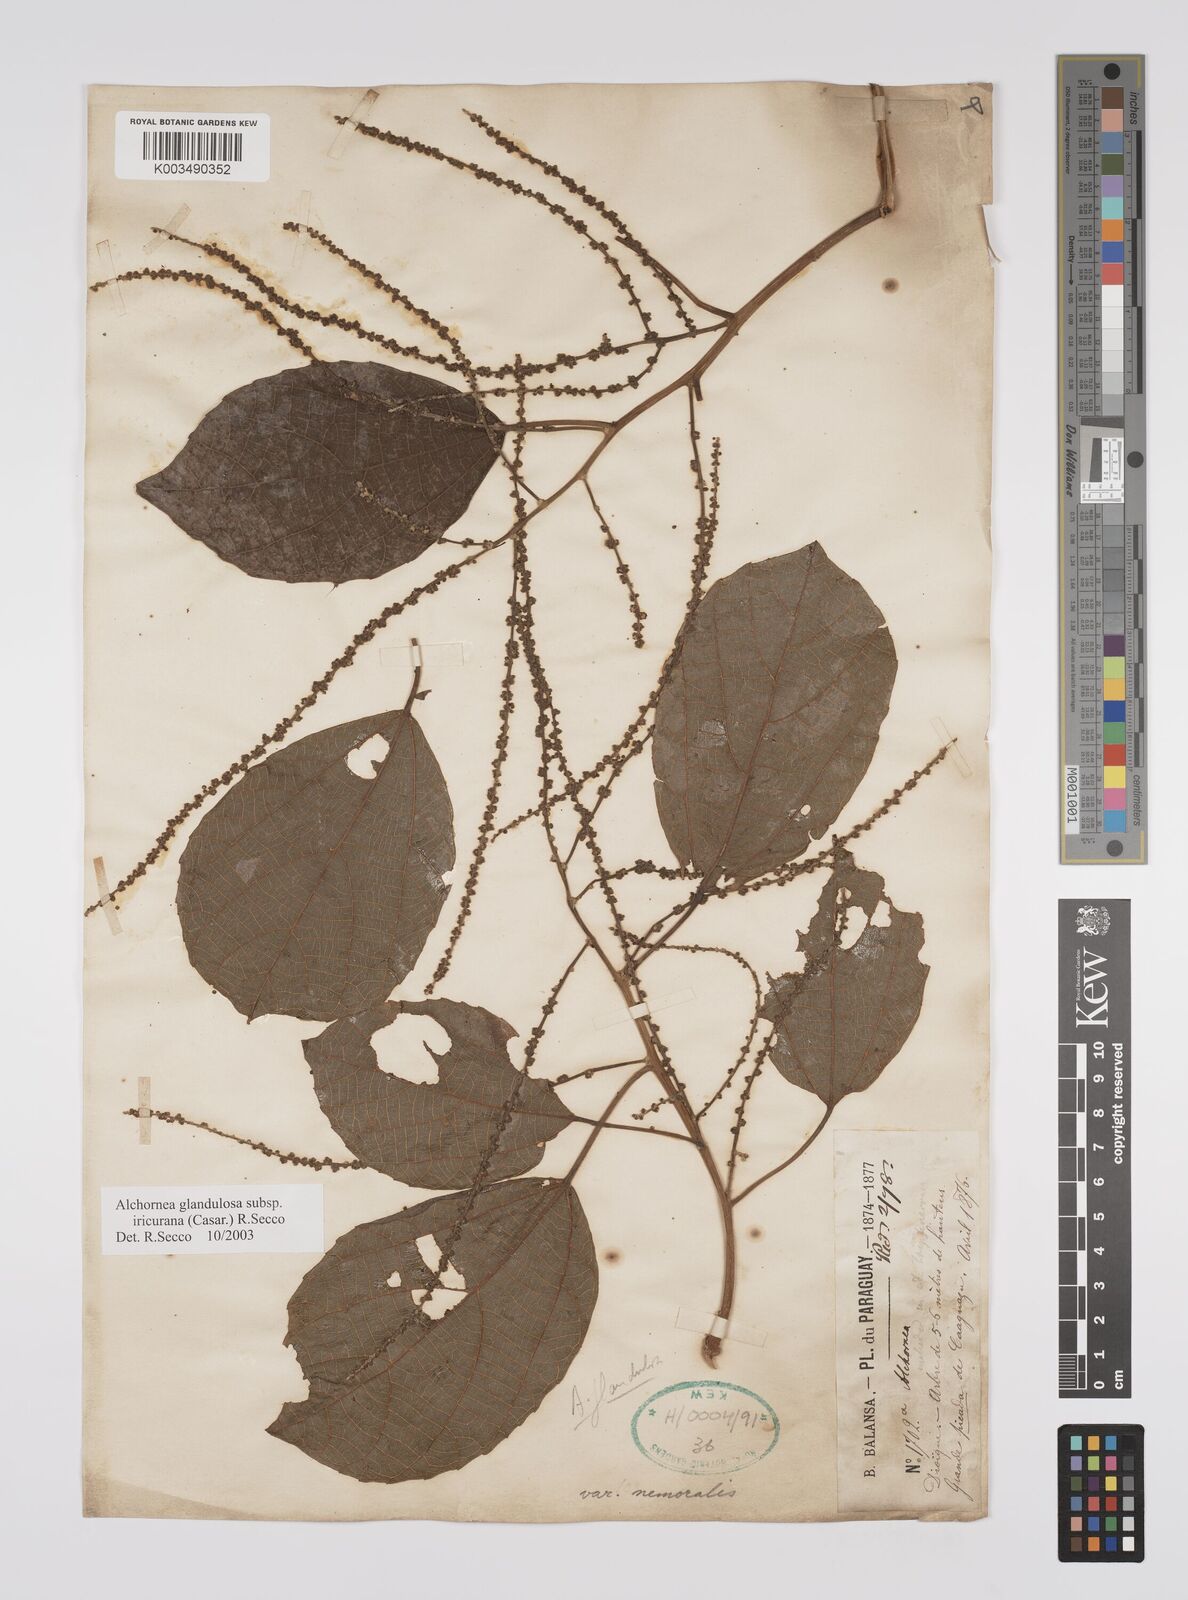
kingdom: Plantae
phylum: Tracheophyta
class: Magnoliopsida
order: Malpighiales
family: Euphorbiaceae
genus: Alchornea
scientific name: Alchornea triplinervia
